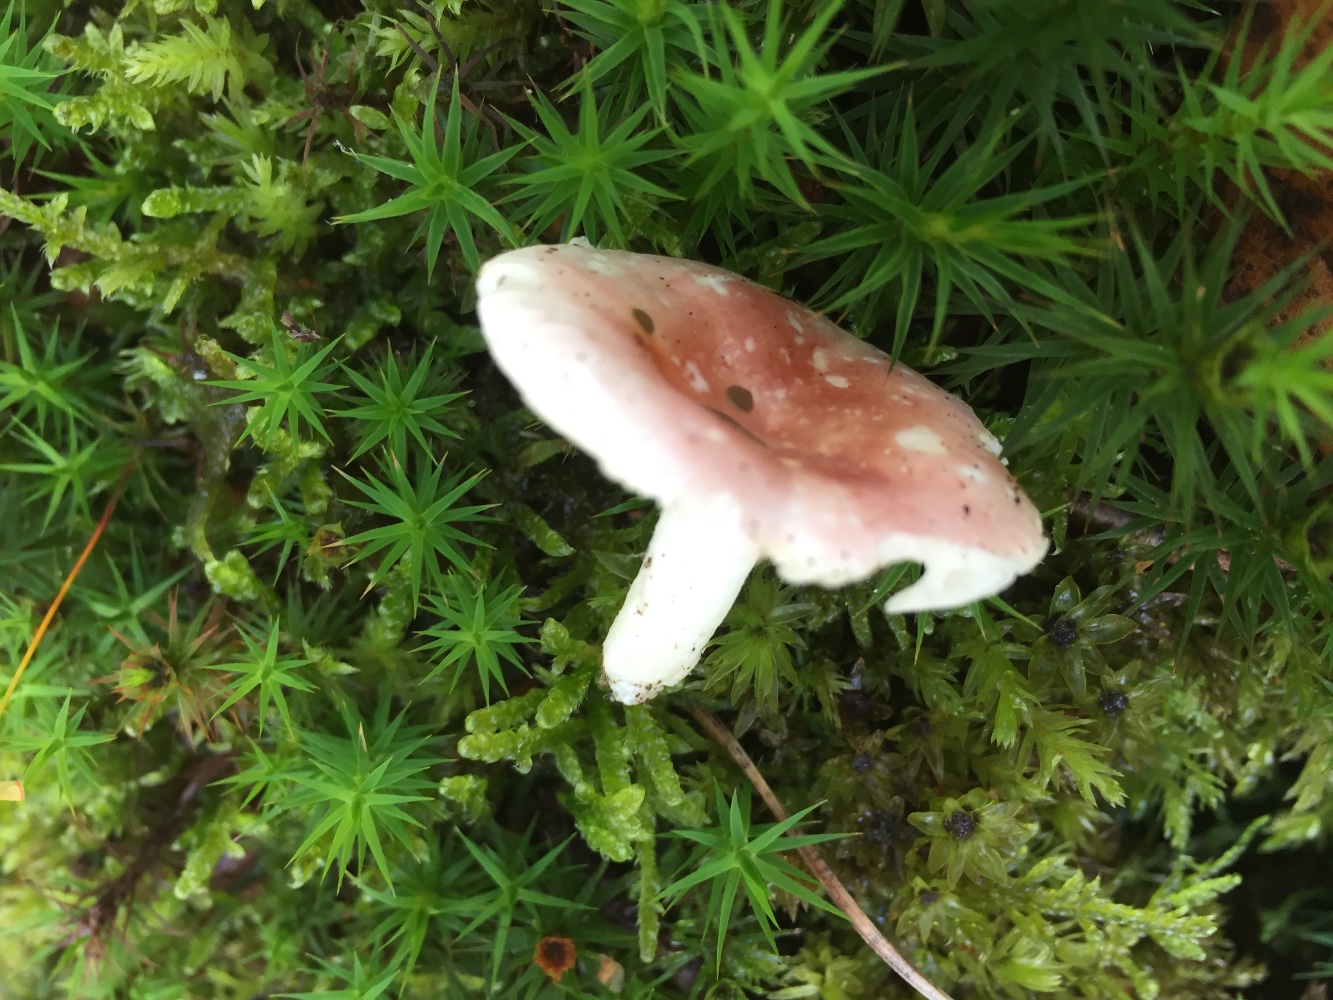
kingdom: Fungi
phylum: Basidiomycota
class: Agaricomycetes
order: Russulales
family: Russulaceae
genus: Russula
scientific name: Russula betularum
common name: bleg gift-skørhat
